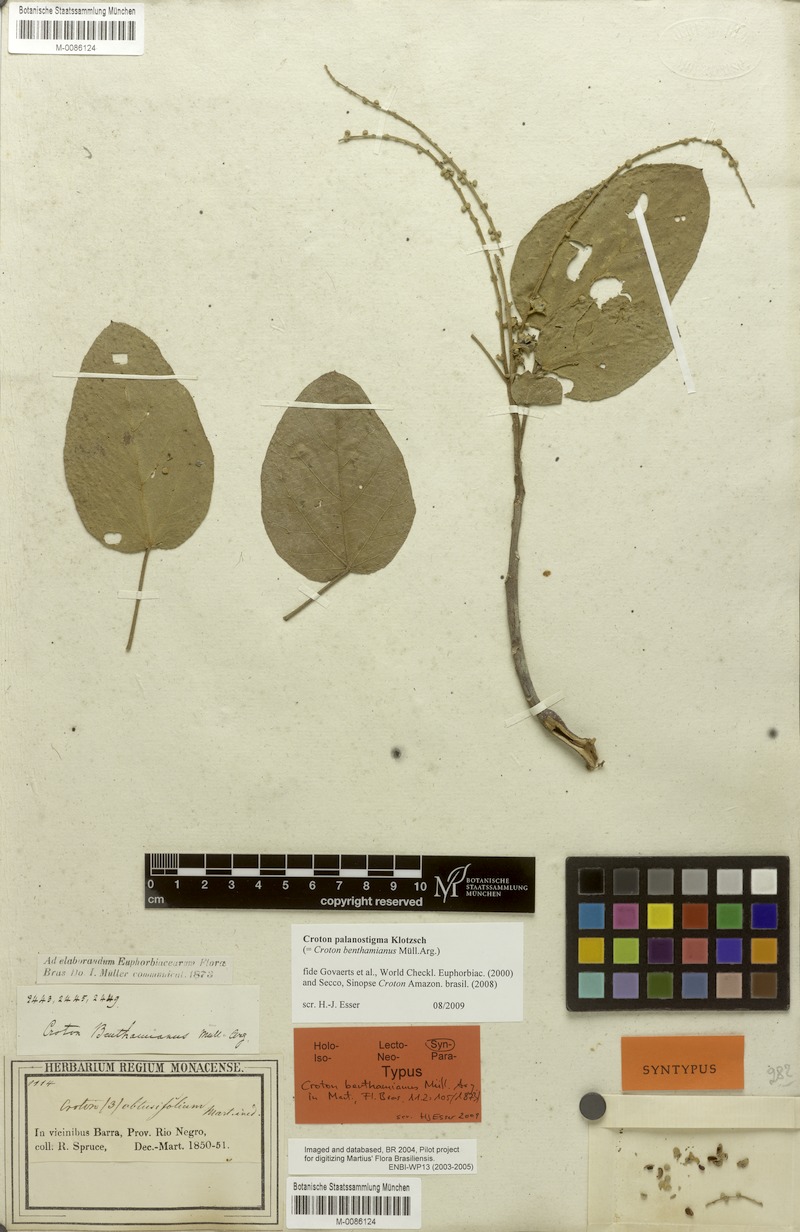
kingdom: Plantae
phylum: Tracheophyta
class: Magnoliopsida
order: Malpighiales
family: Euphorbiaceae
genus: Croton
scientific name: Croton palanostigma
